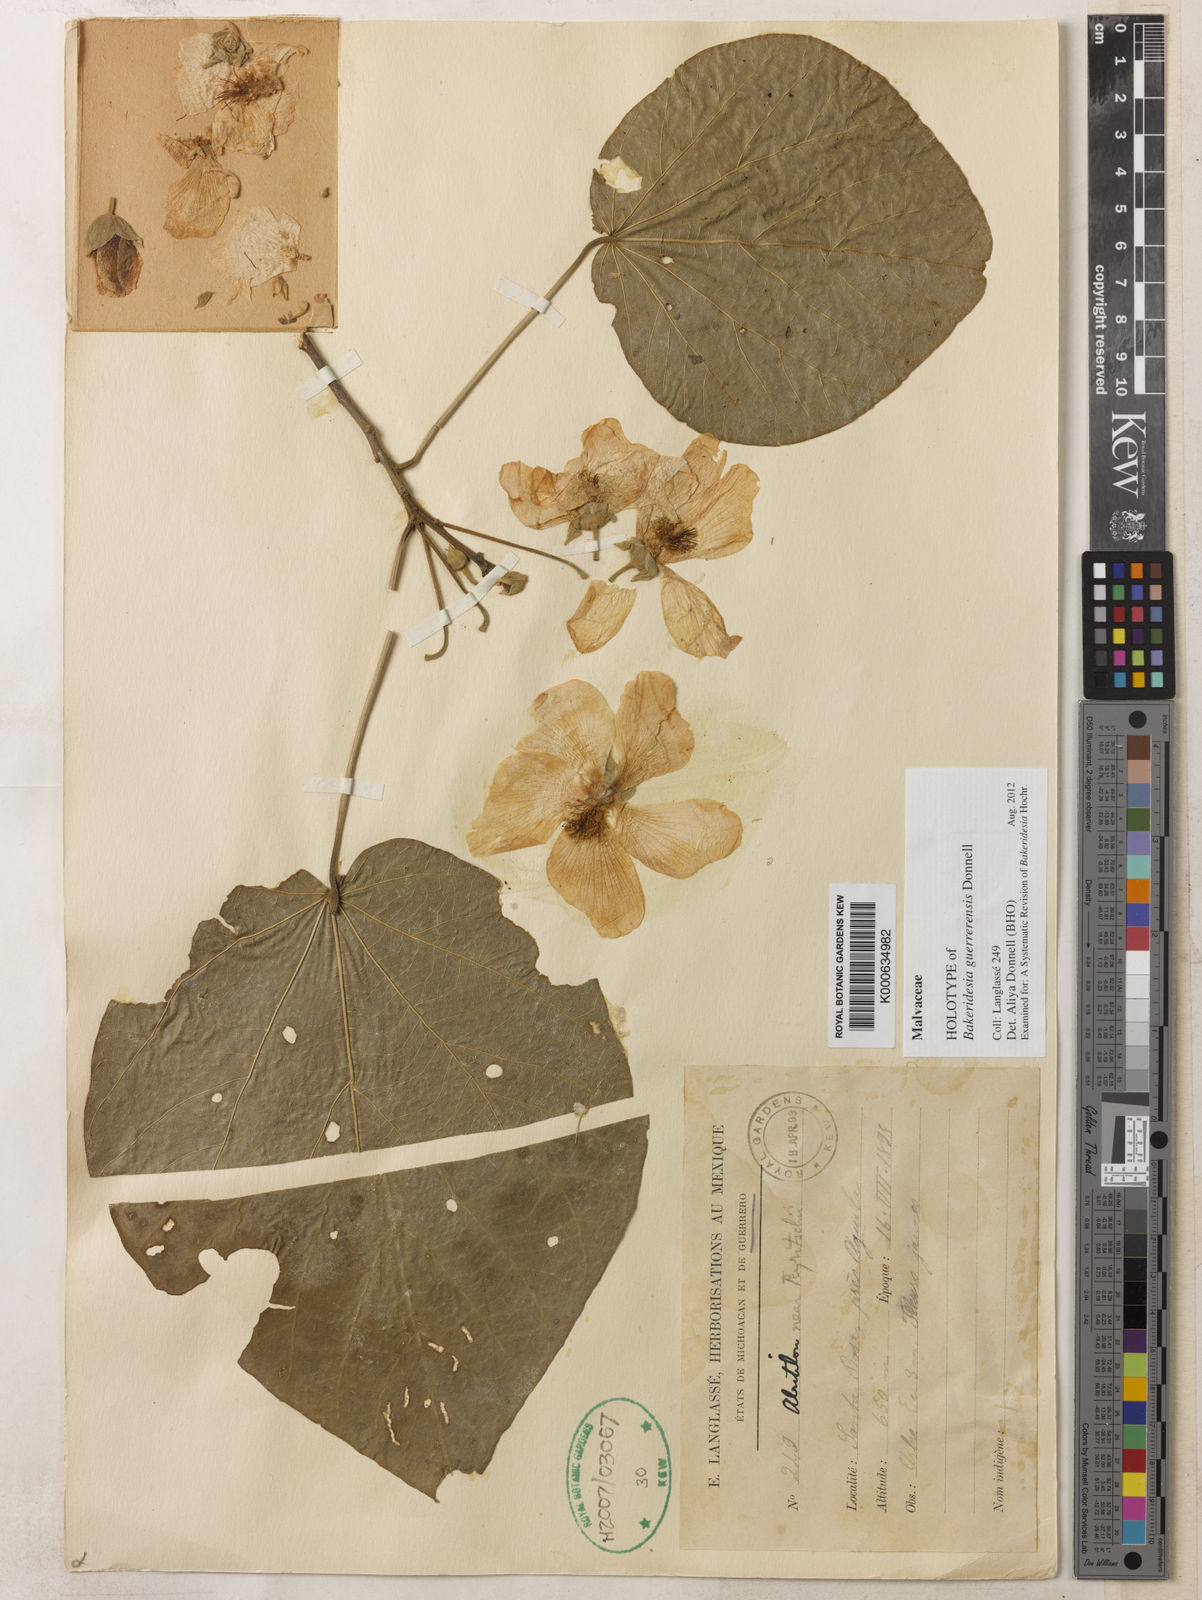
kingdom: Plantae
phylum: Tracheophyta
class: Magnoliopsida
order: Malvales
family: Malvaceae
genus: Bakeridesia
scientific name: Bakeridesia guerrerensis
